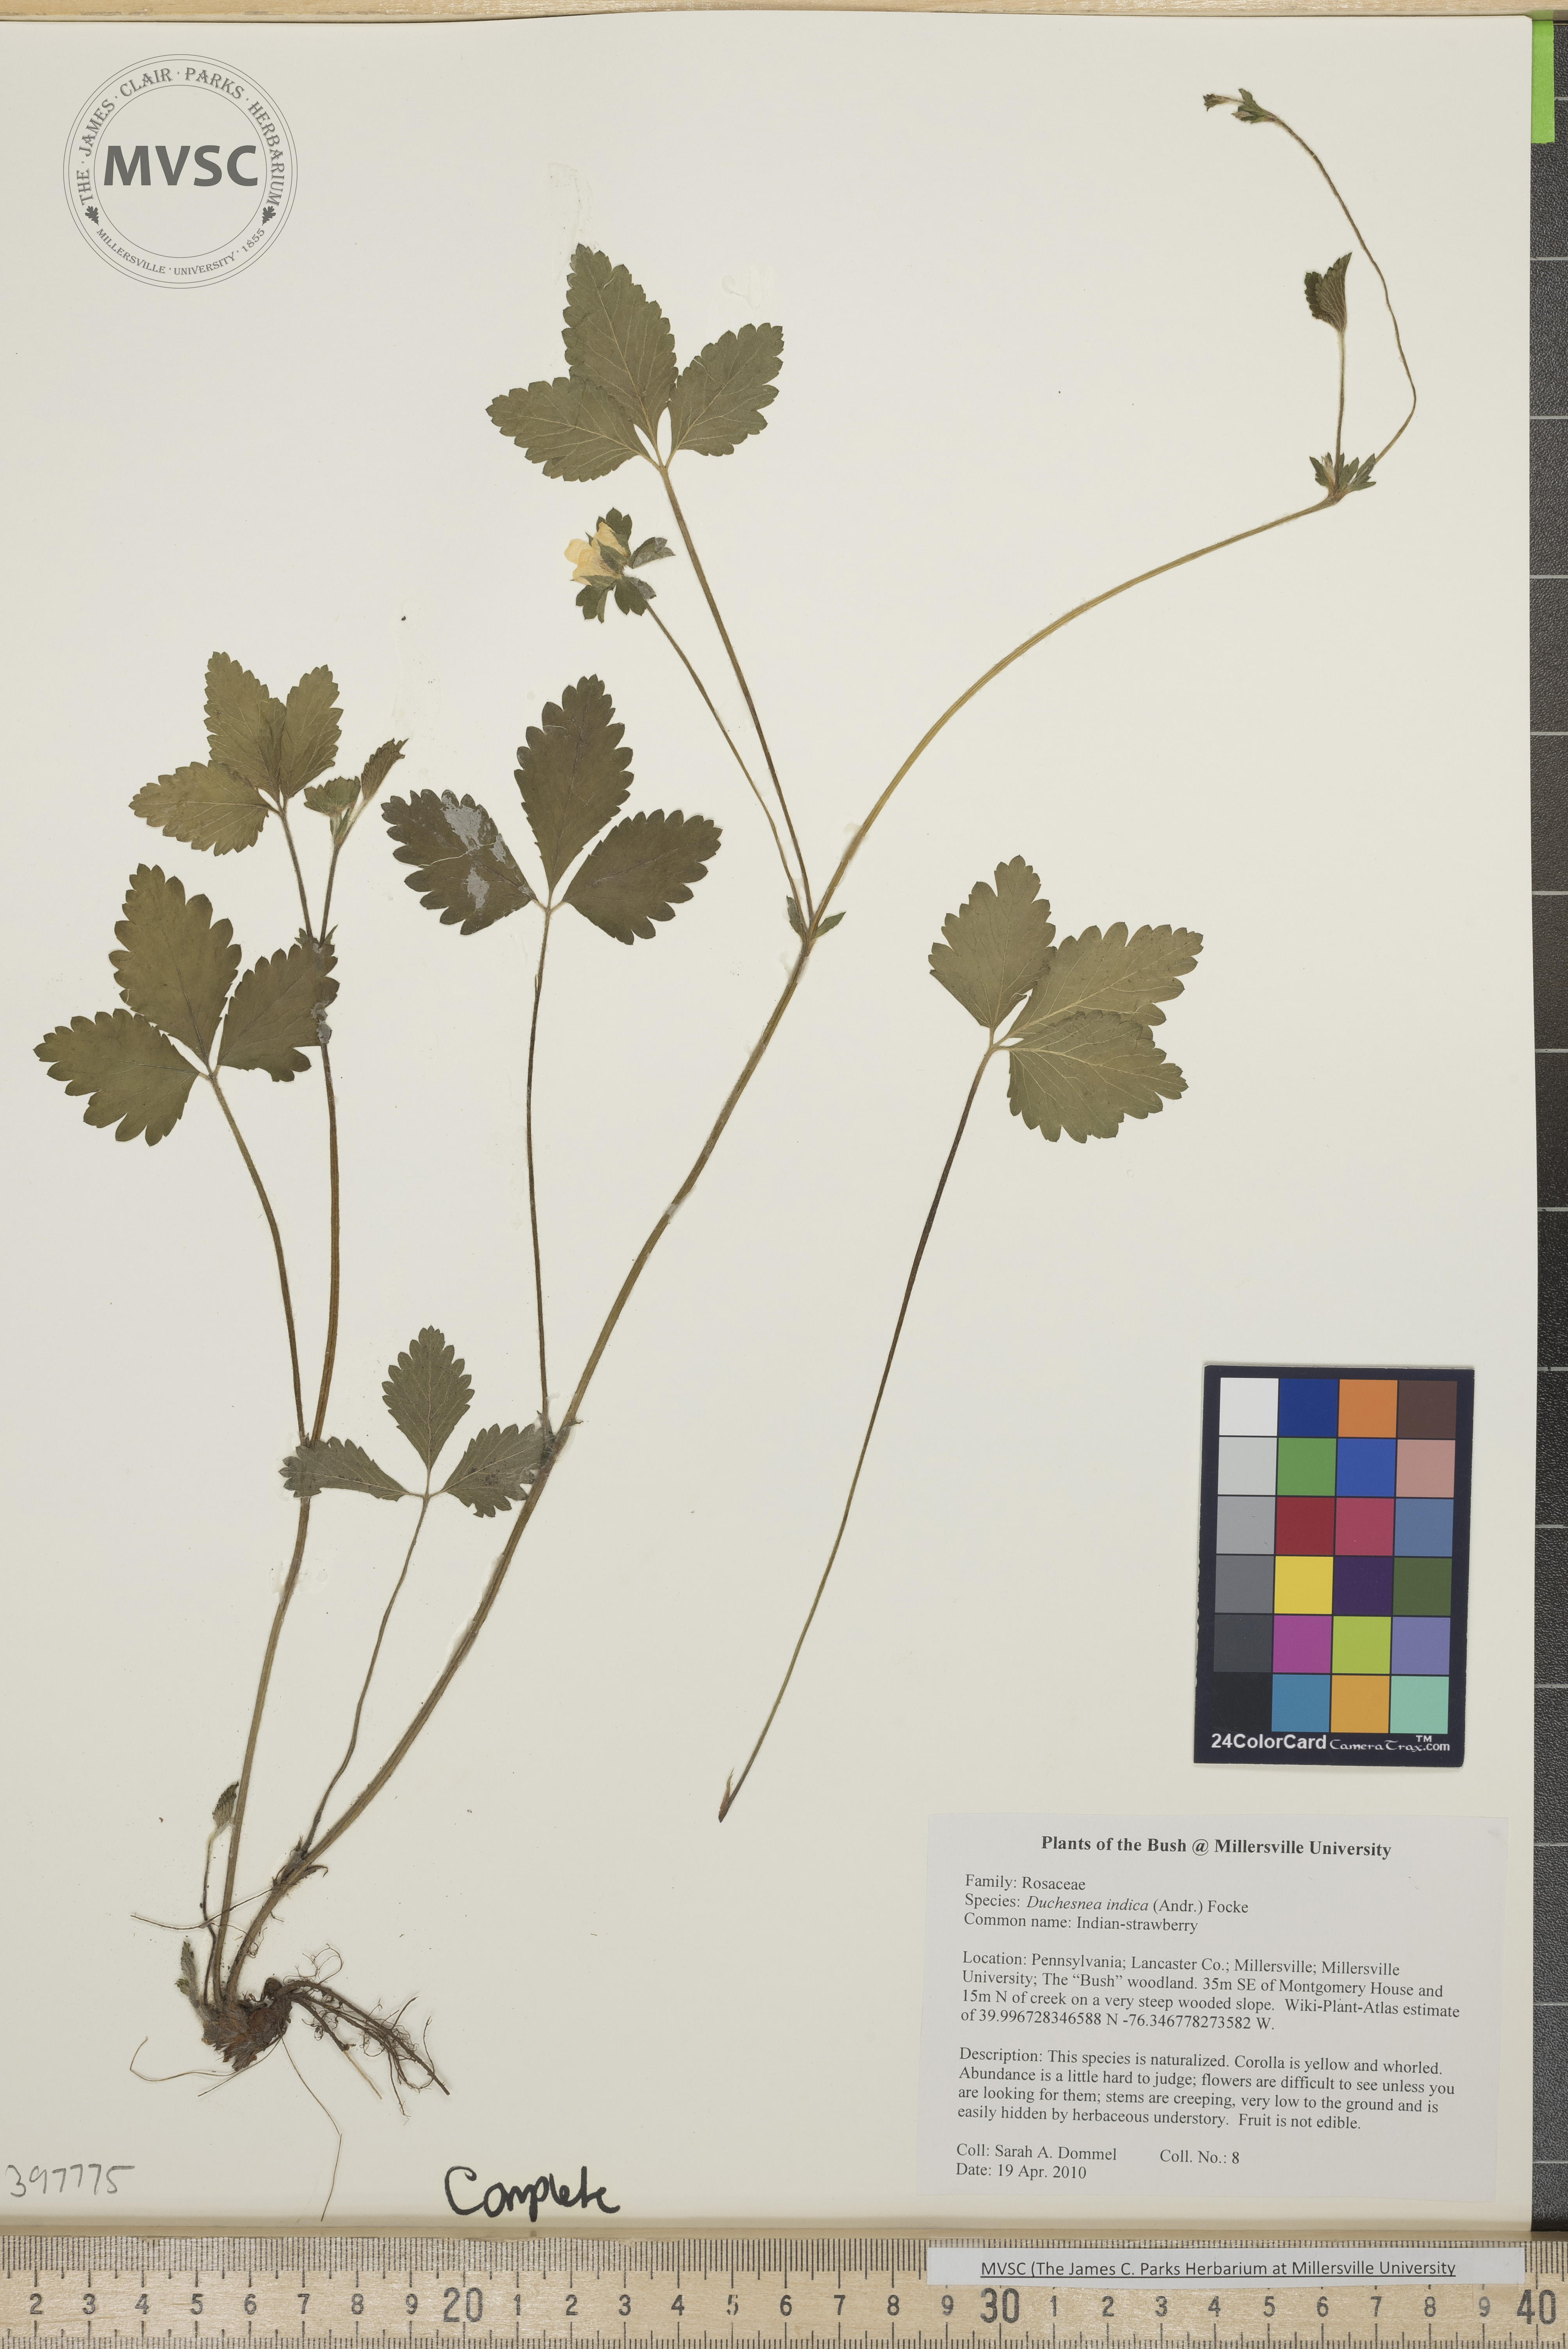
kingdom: Plantae
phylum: Tracheophyta
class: Magnoliopsida
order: Rosales
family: Rosaceae
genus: Potentilla
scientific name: Potentilla indica
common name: Indian strawberry
